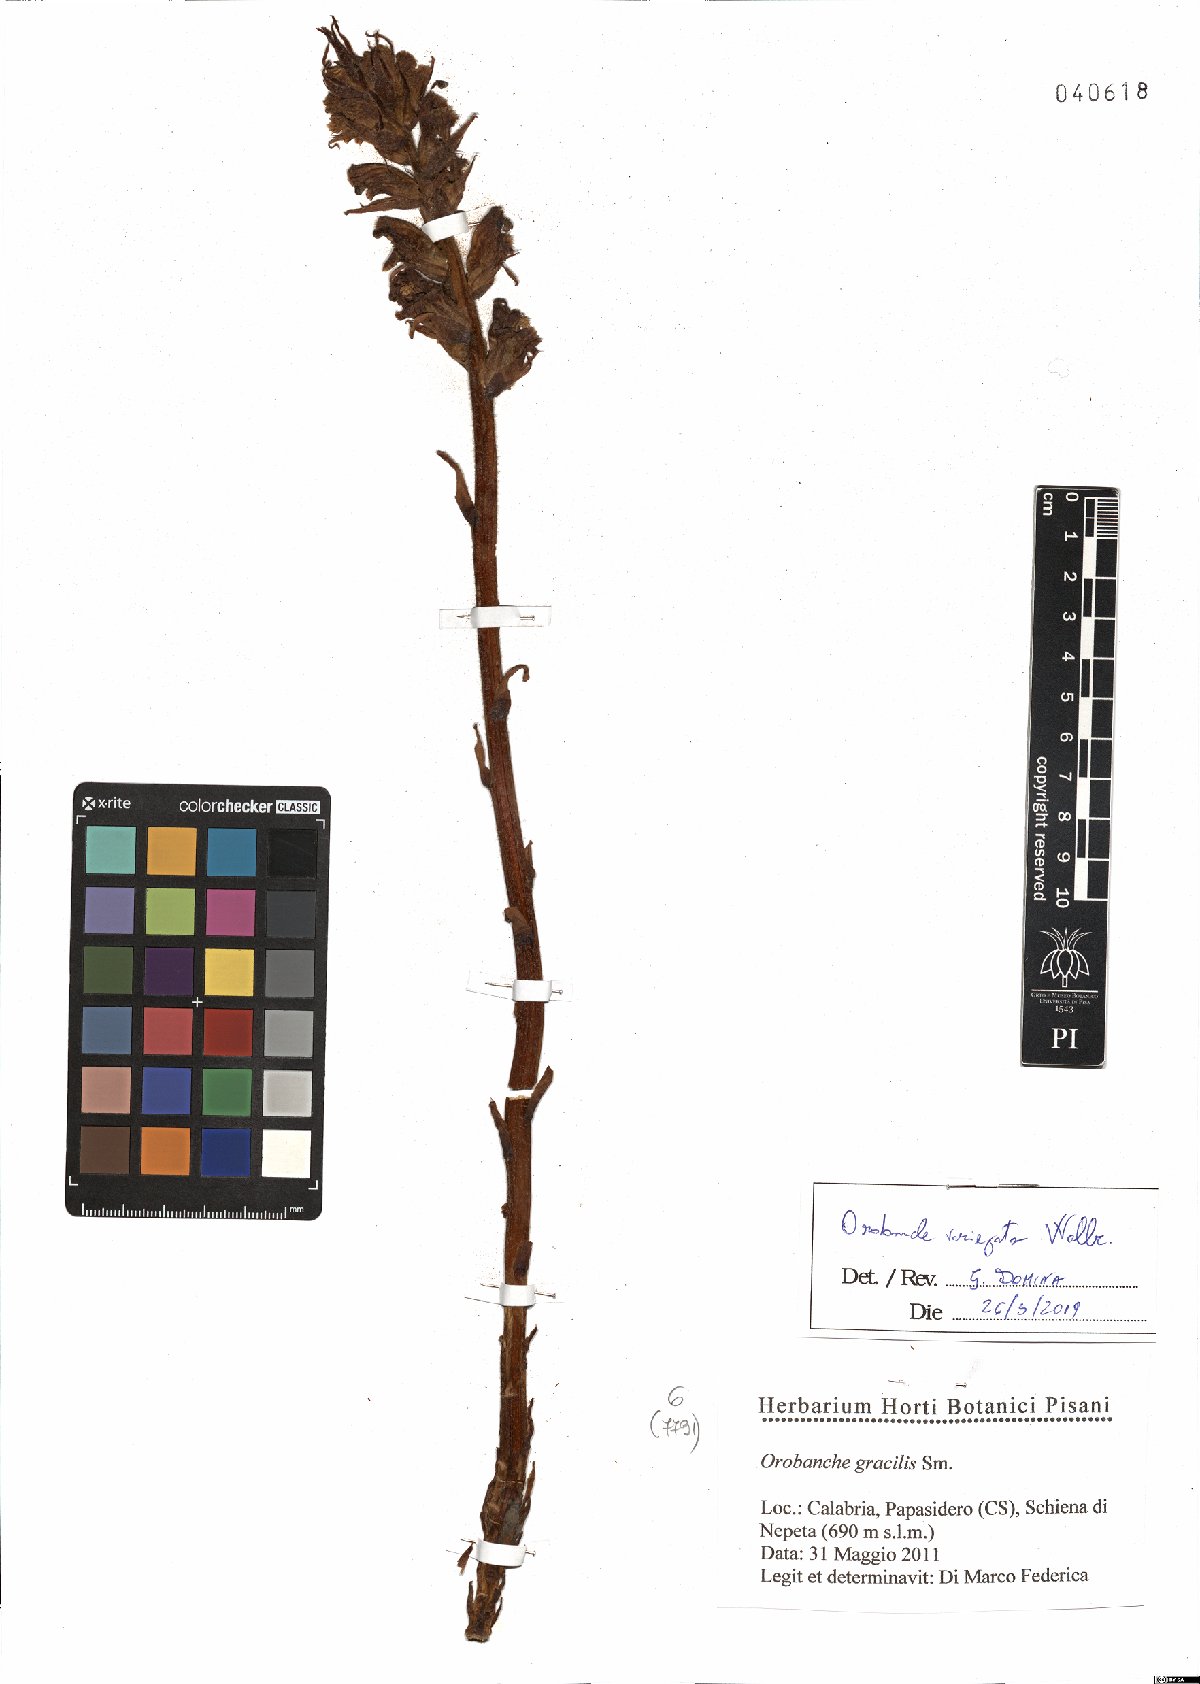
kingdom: Plantae
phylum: Tracheophyta
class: Magnoliopsida
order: Lamiales
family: Orobanchaceae
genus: Orobanche
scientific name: Orobanche variegata
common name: Variegated broomrape
